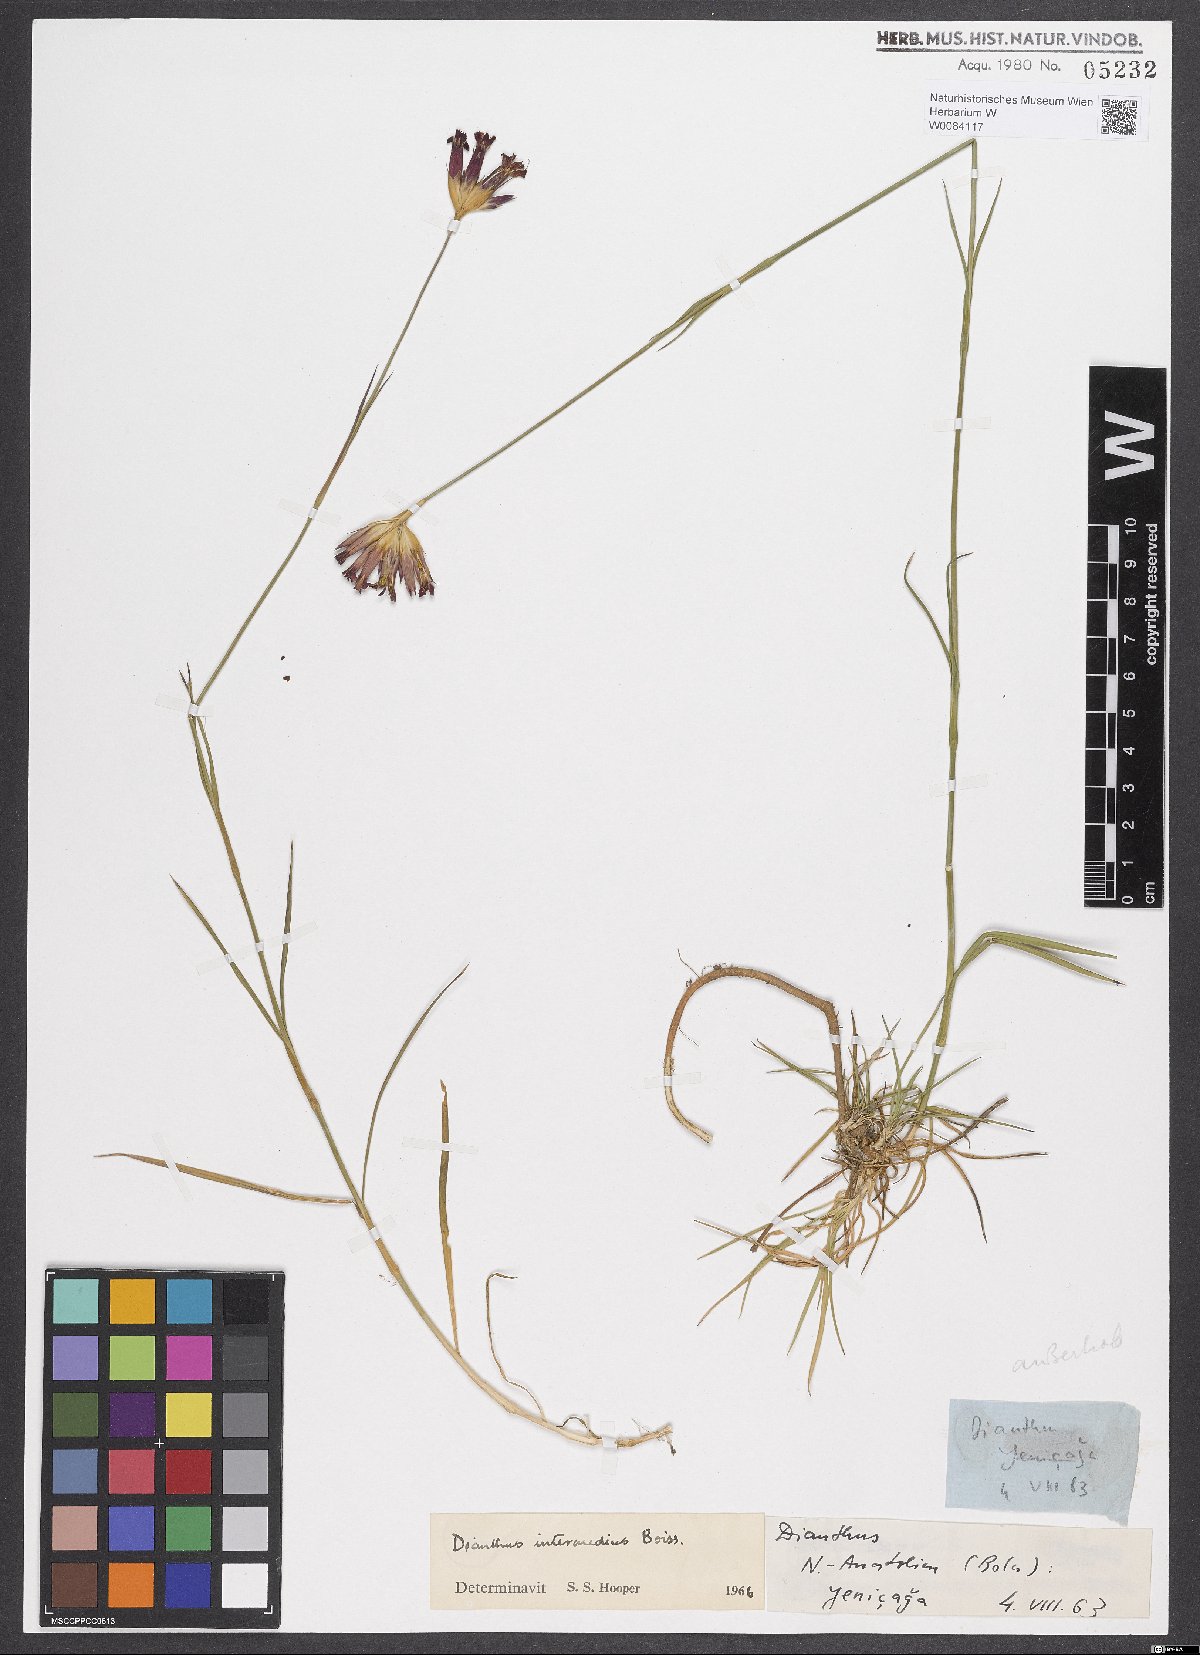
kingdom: Plantae
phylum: Tracheophyta
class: Magnoliopsida
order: Caryophyllales
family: Caryophyllaceae
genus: Dianthus
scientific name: Dianthus giganteus
